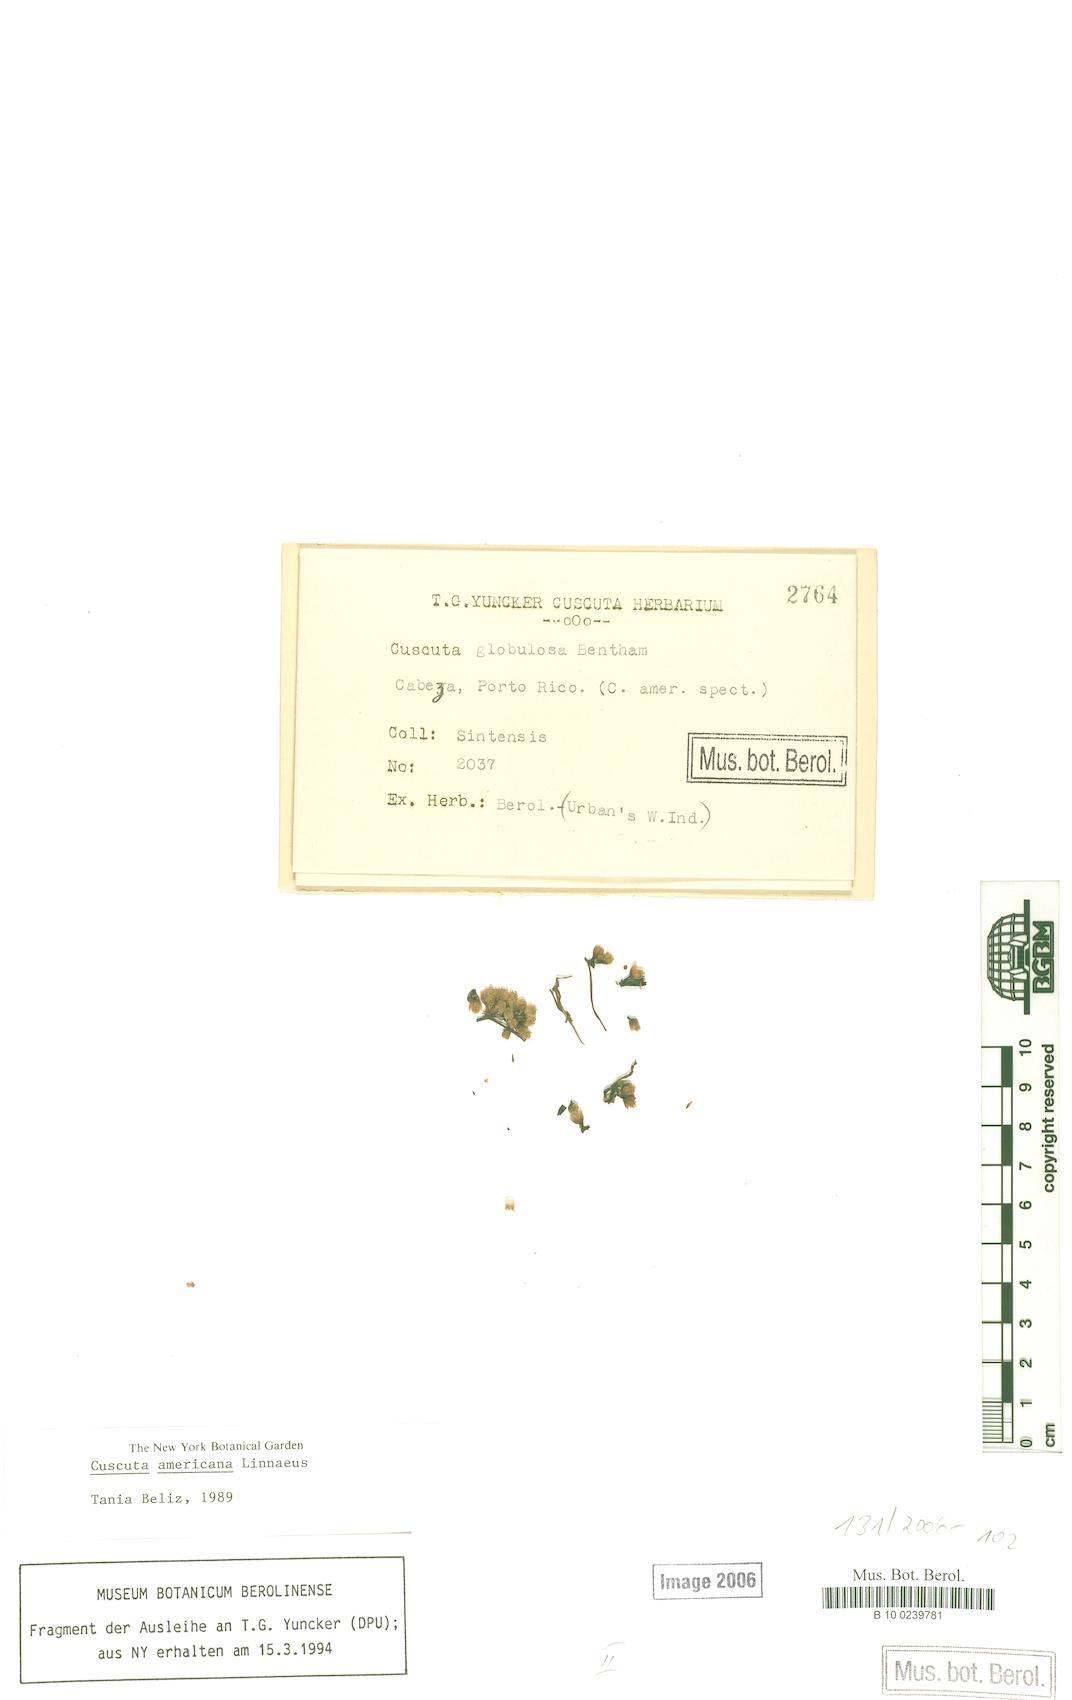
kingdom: Plantae
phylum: Tracheophyta
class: Magnoliopsida
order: Solanales
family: Convolvulaceae
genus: Cuscuta
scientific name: Cuscuta americana
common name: American dodder
